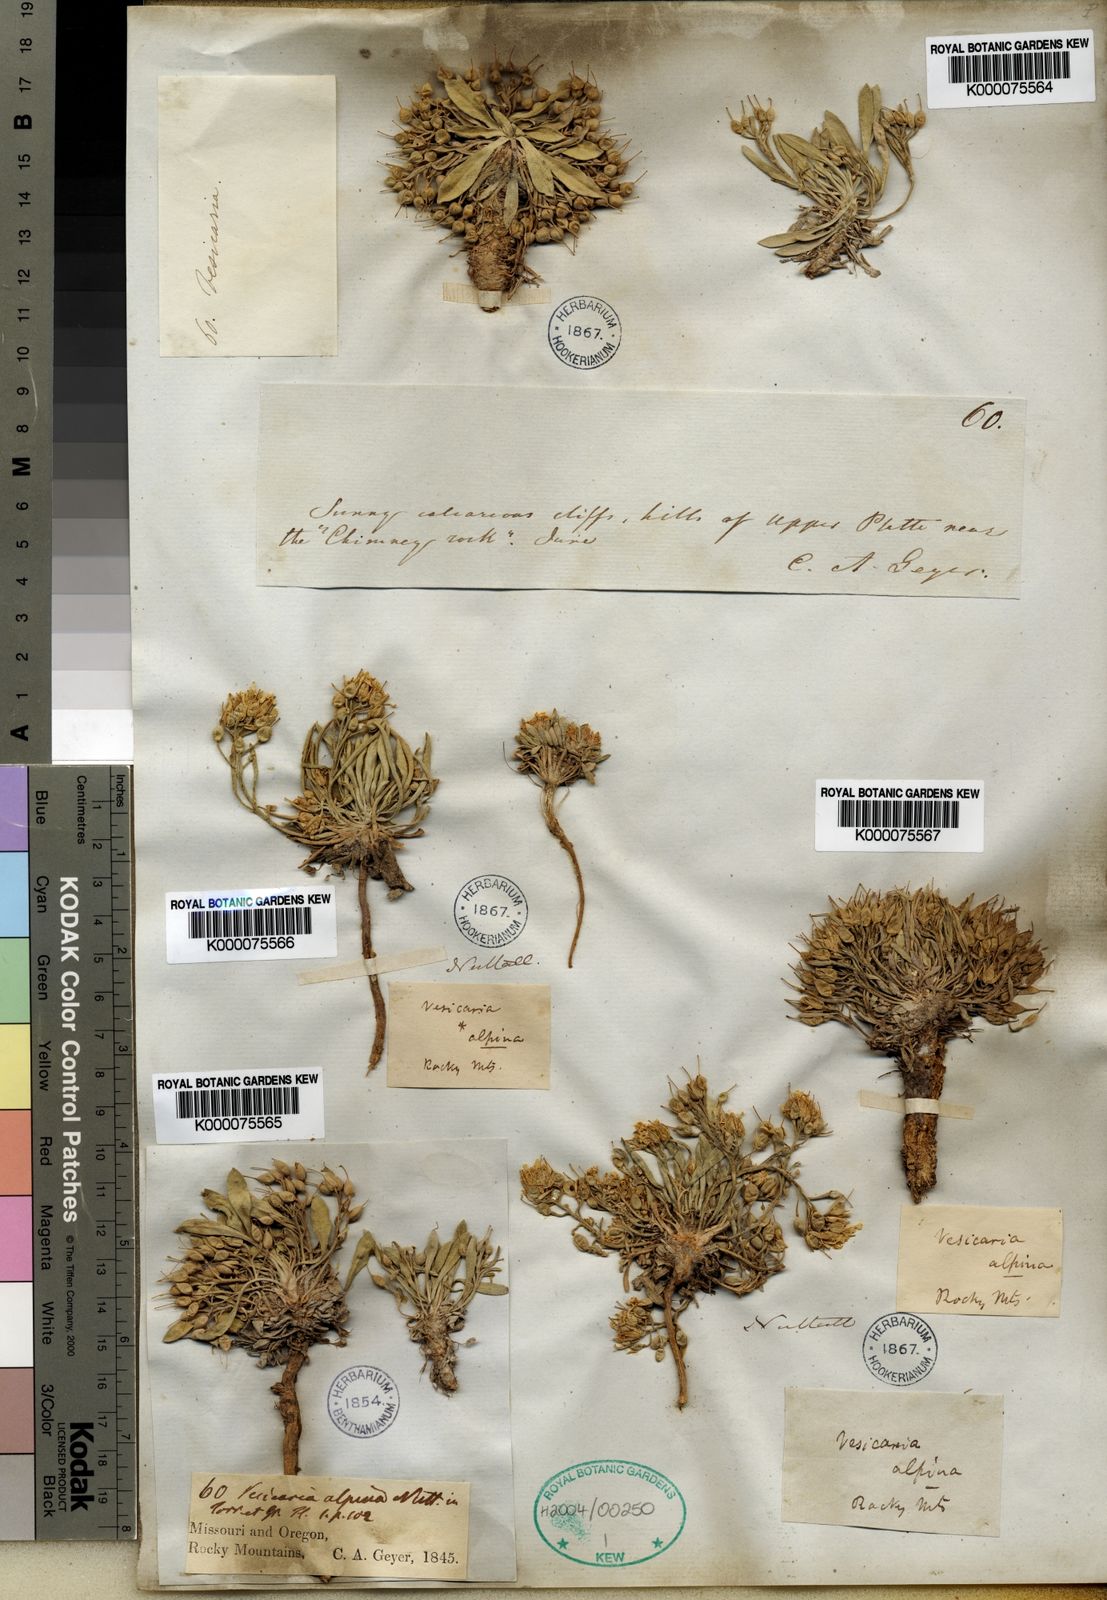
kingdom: Plantae
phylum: Tracheophyta
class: Magnoliopsida
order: Brassicales
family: Brassicaceae
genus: Physaria
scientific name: Physaria reediana
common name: Rollins's bladderpod
